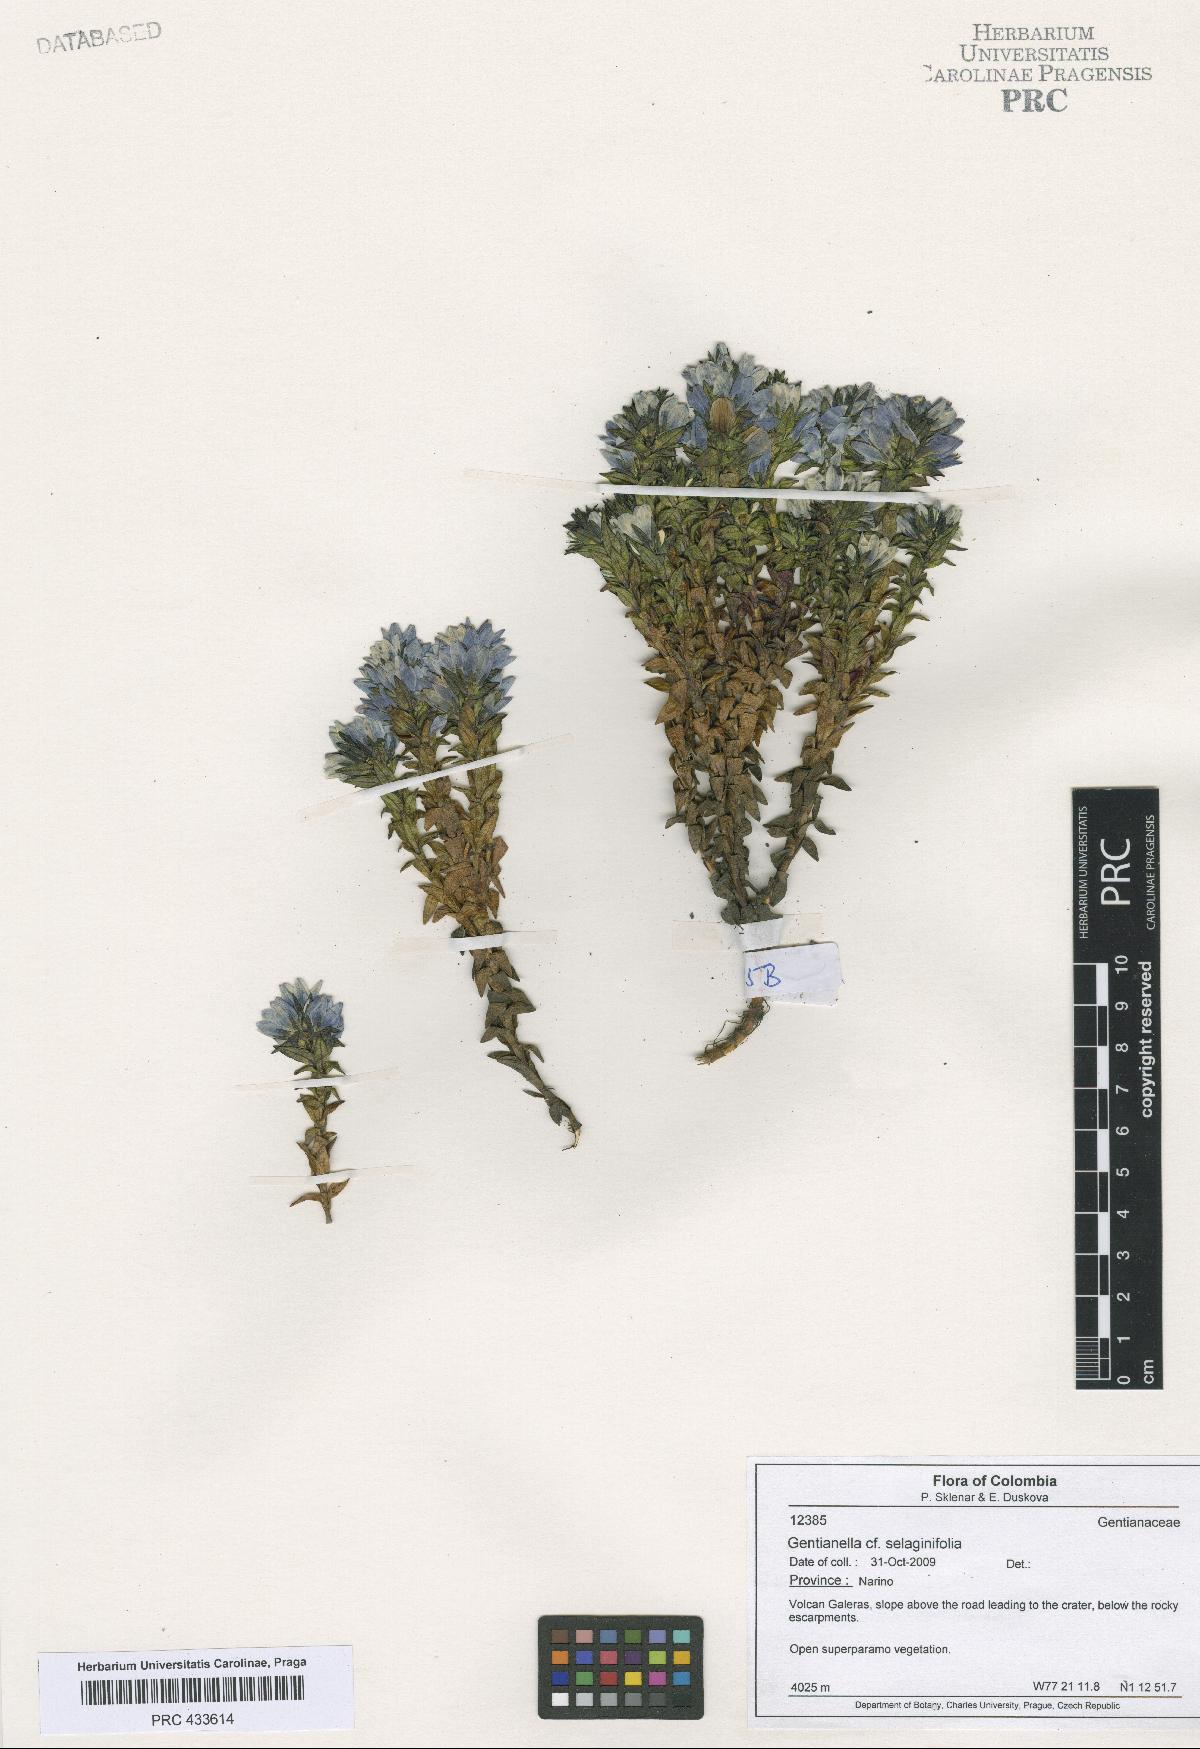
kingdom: Plantae
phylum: Tracheophyta
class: Magnoliopsida
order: Gentianales
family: Gentianaceae
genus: Gentianella
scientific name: Gentianella
